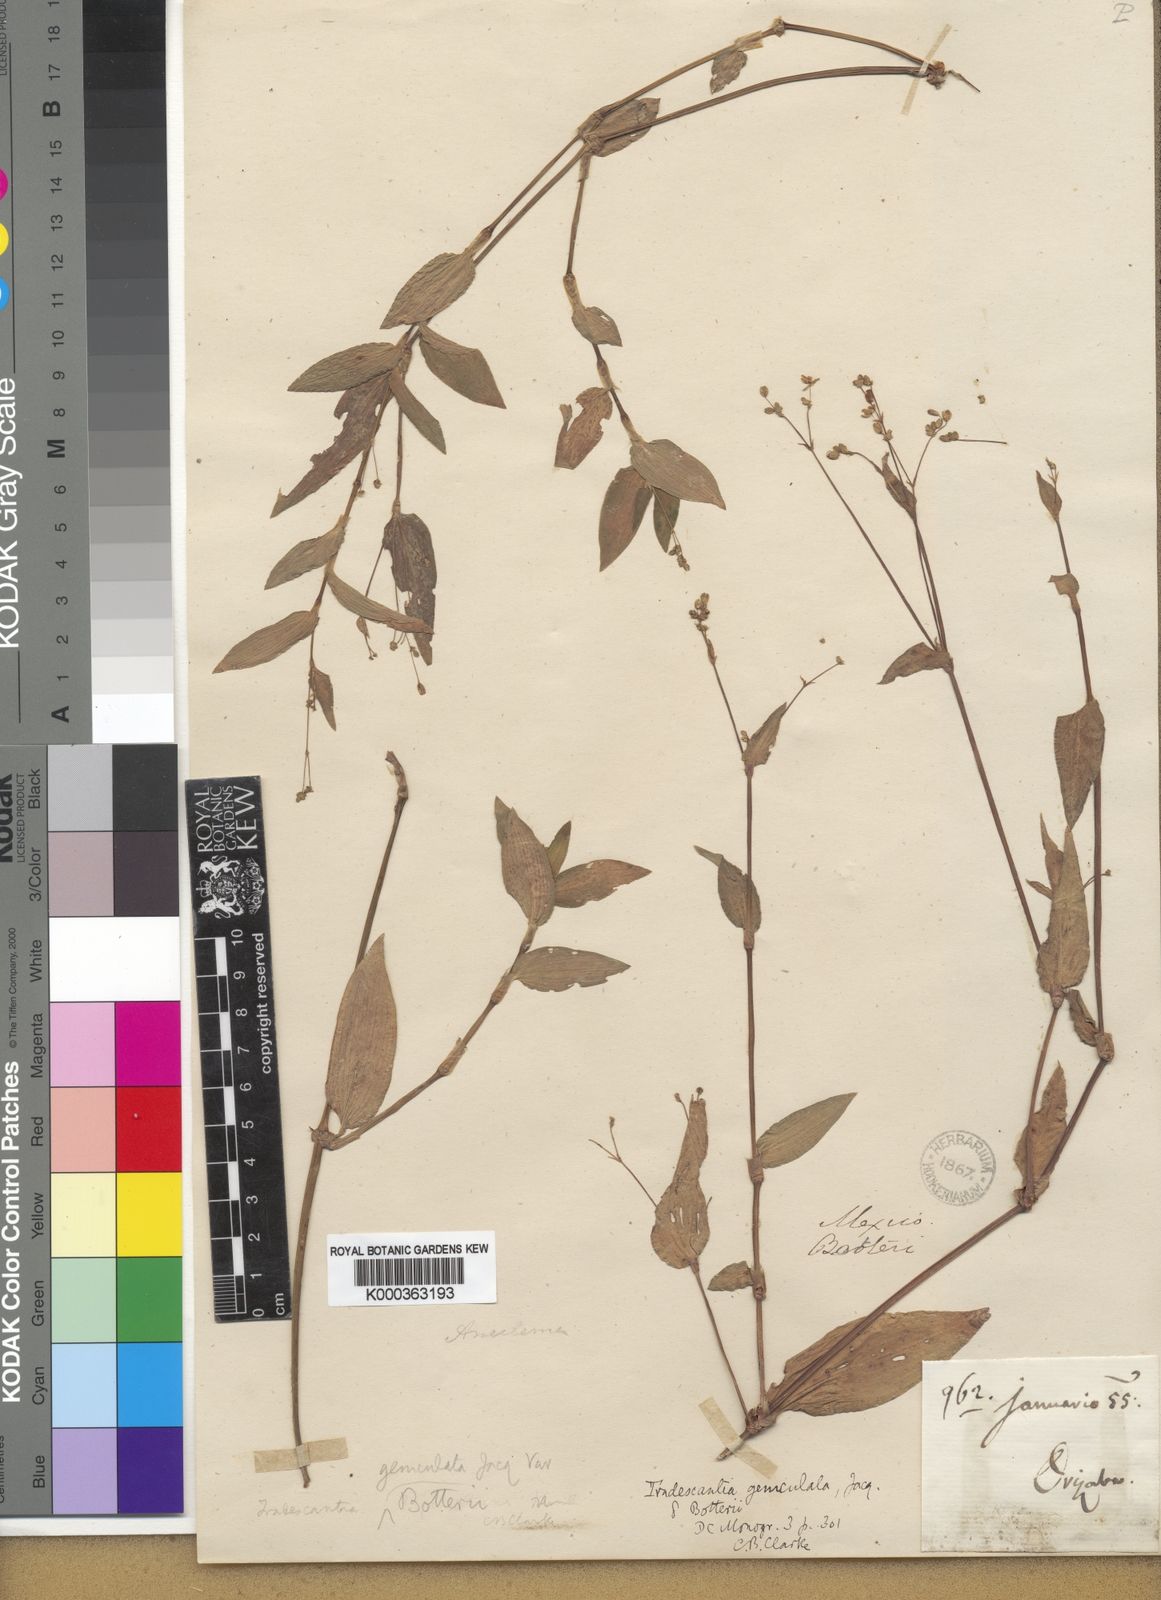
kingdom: Plantae
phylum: Tracheophyta
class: Liliopsida
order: Commelinales
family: Commelinaceae
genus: Gibasis
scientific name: Gibasis pellucida
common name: Dotted bridalveil
